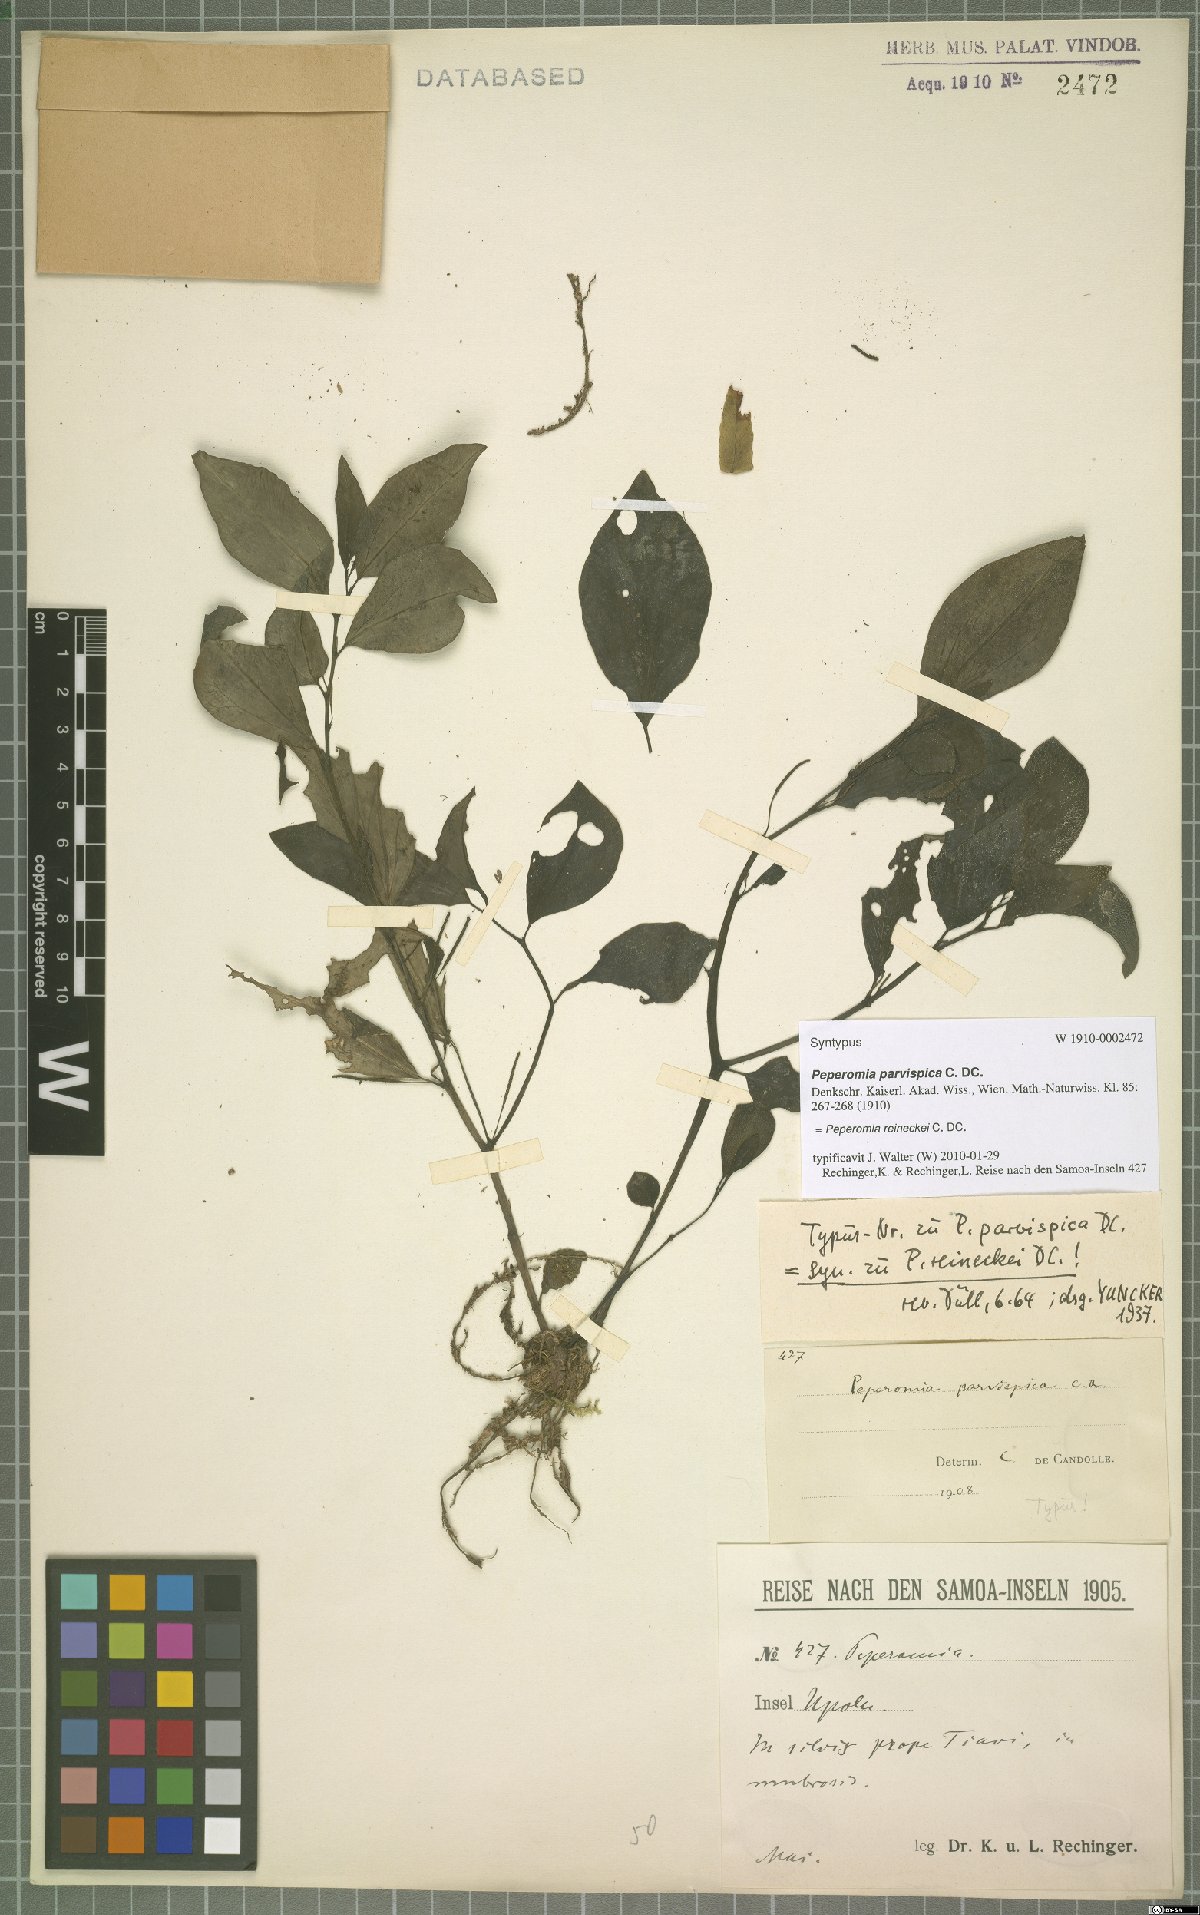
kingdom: Plantae
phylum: Tracheophyta
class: Magnoliopsida
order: Piperales
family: Piperaceae
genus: Peperomia
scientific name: Peperomia reineckei
